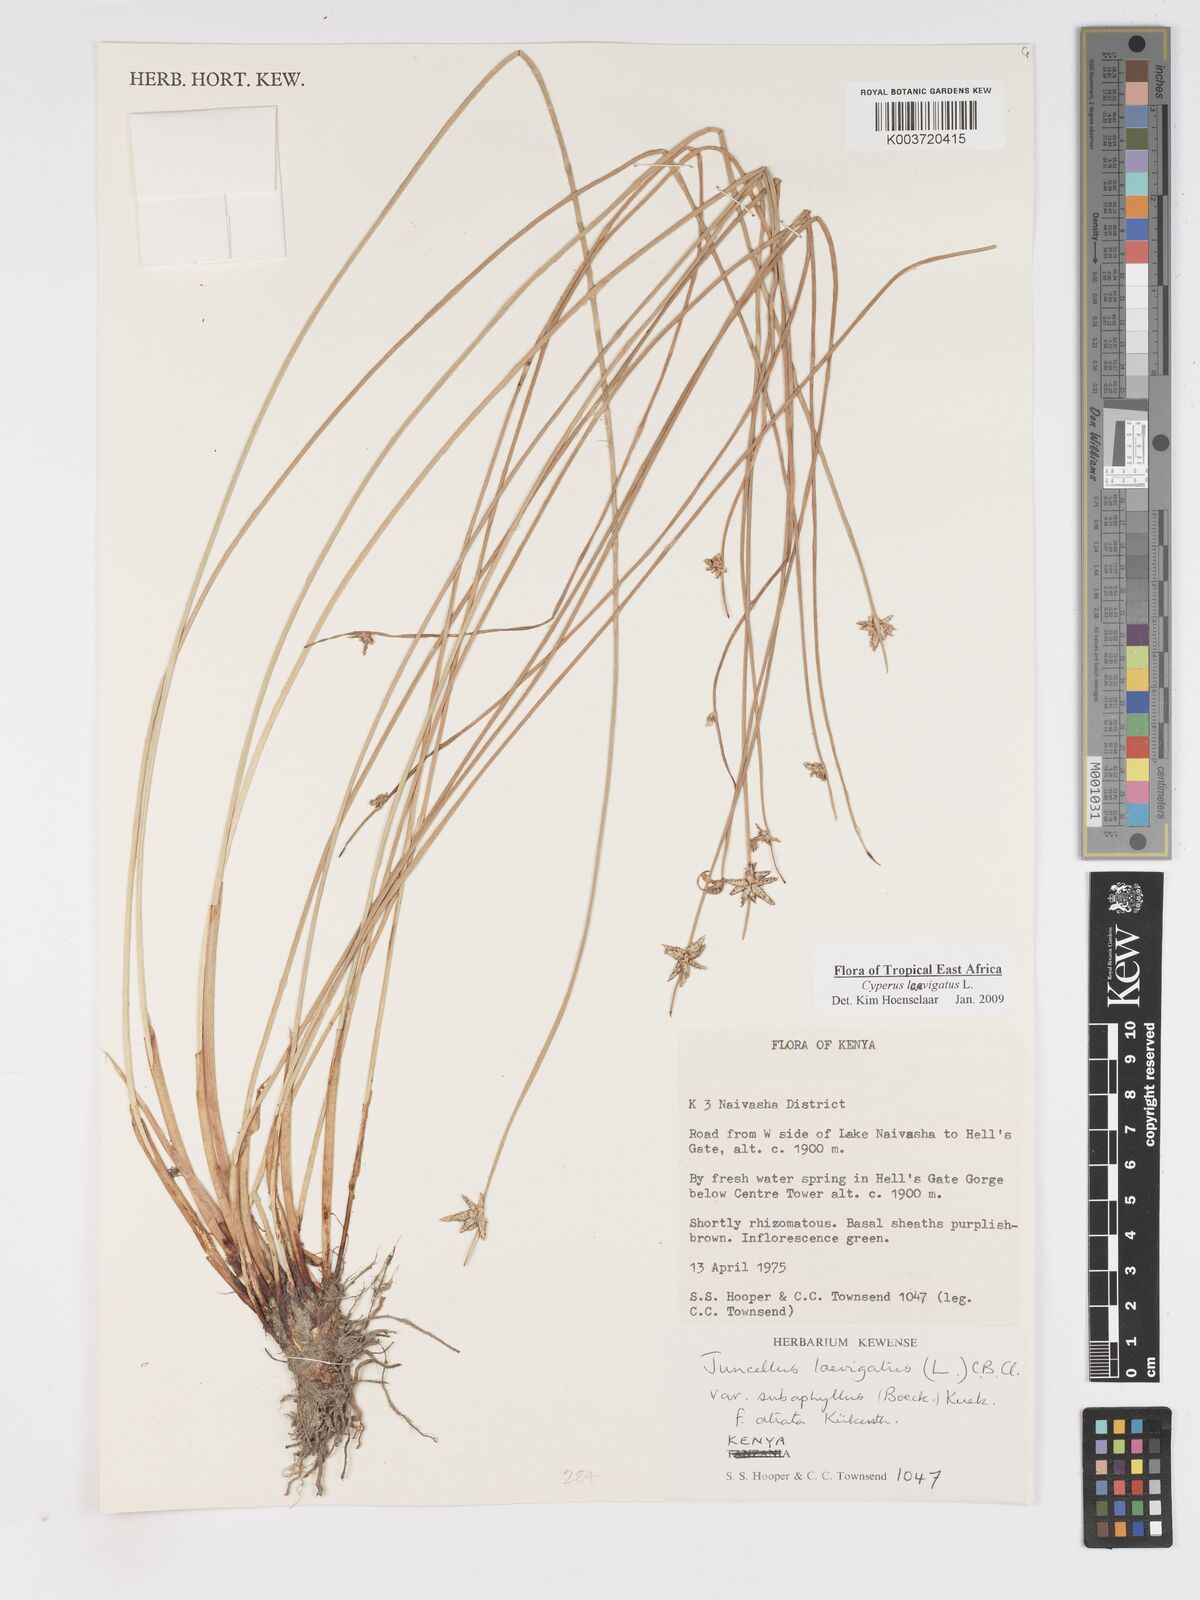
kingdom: Plantae
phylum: Tracheophyta
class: Liliopsida
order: Poales
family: Cyperaceae
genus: Cyperus
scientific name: Cyperus laevigatus
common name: Smooth flat sedge
